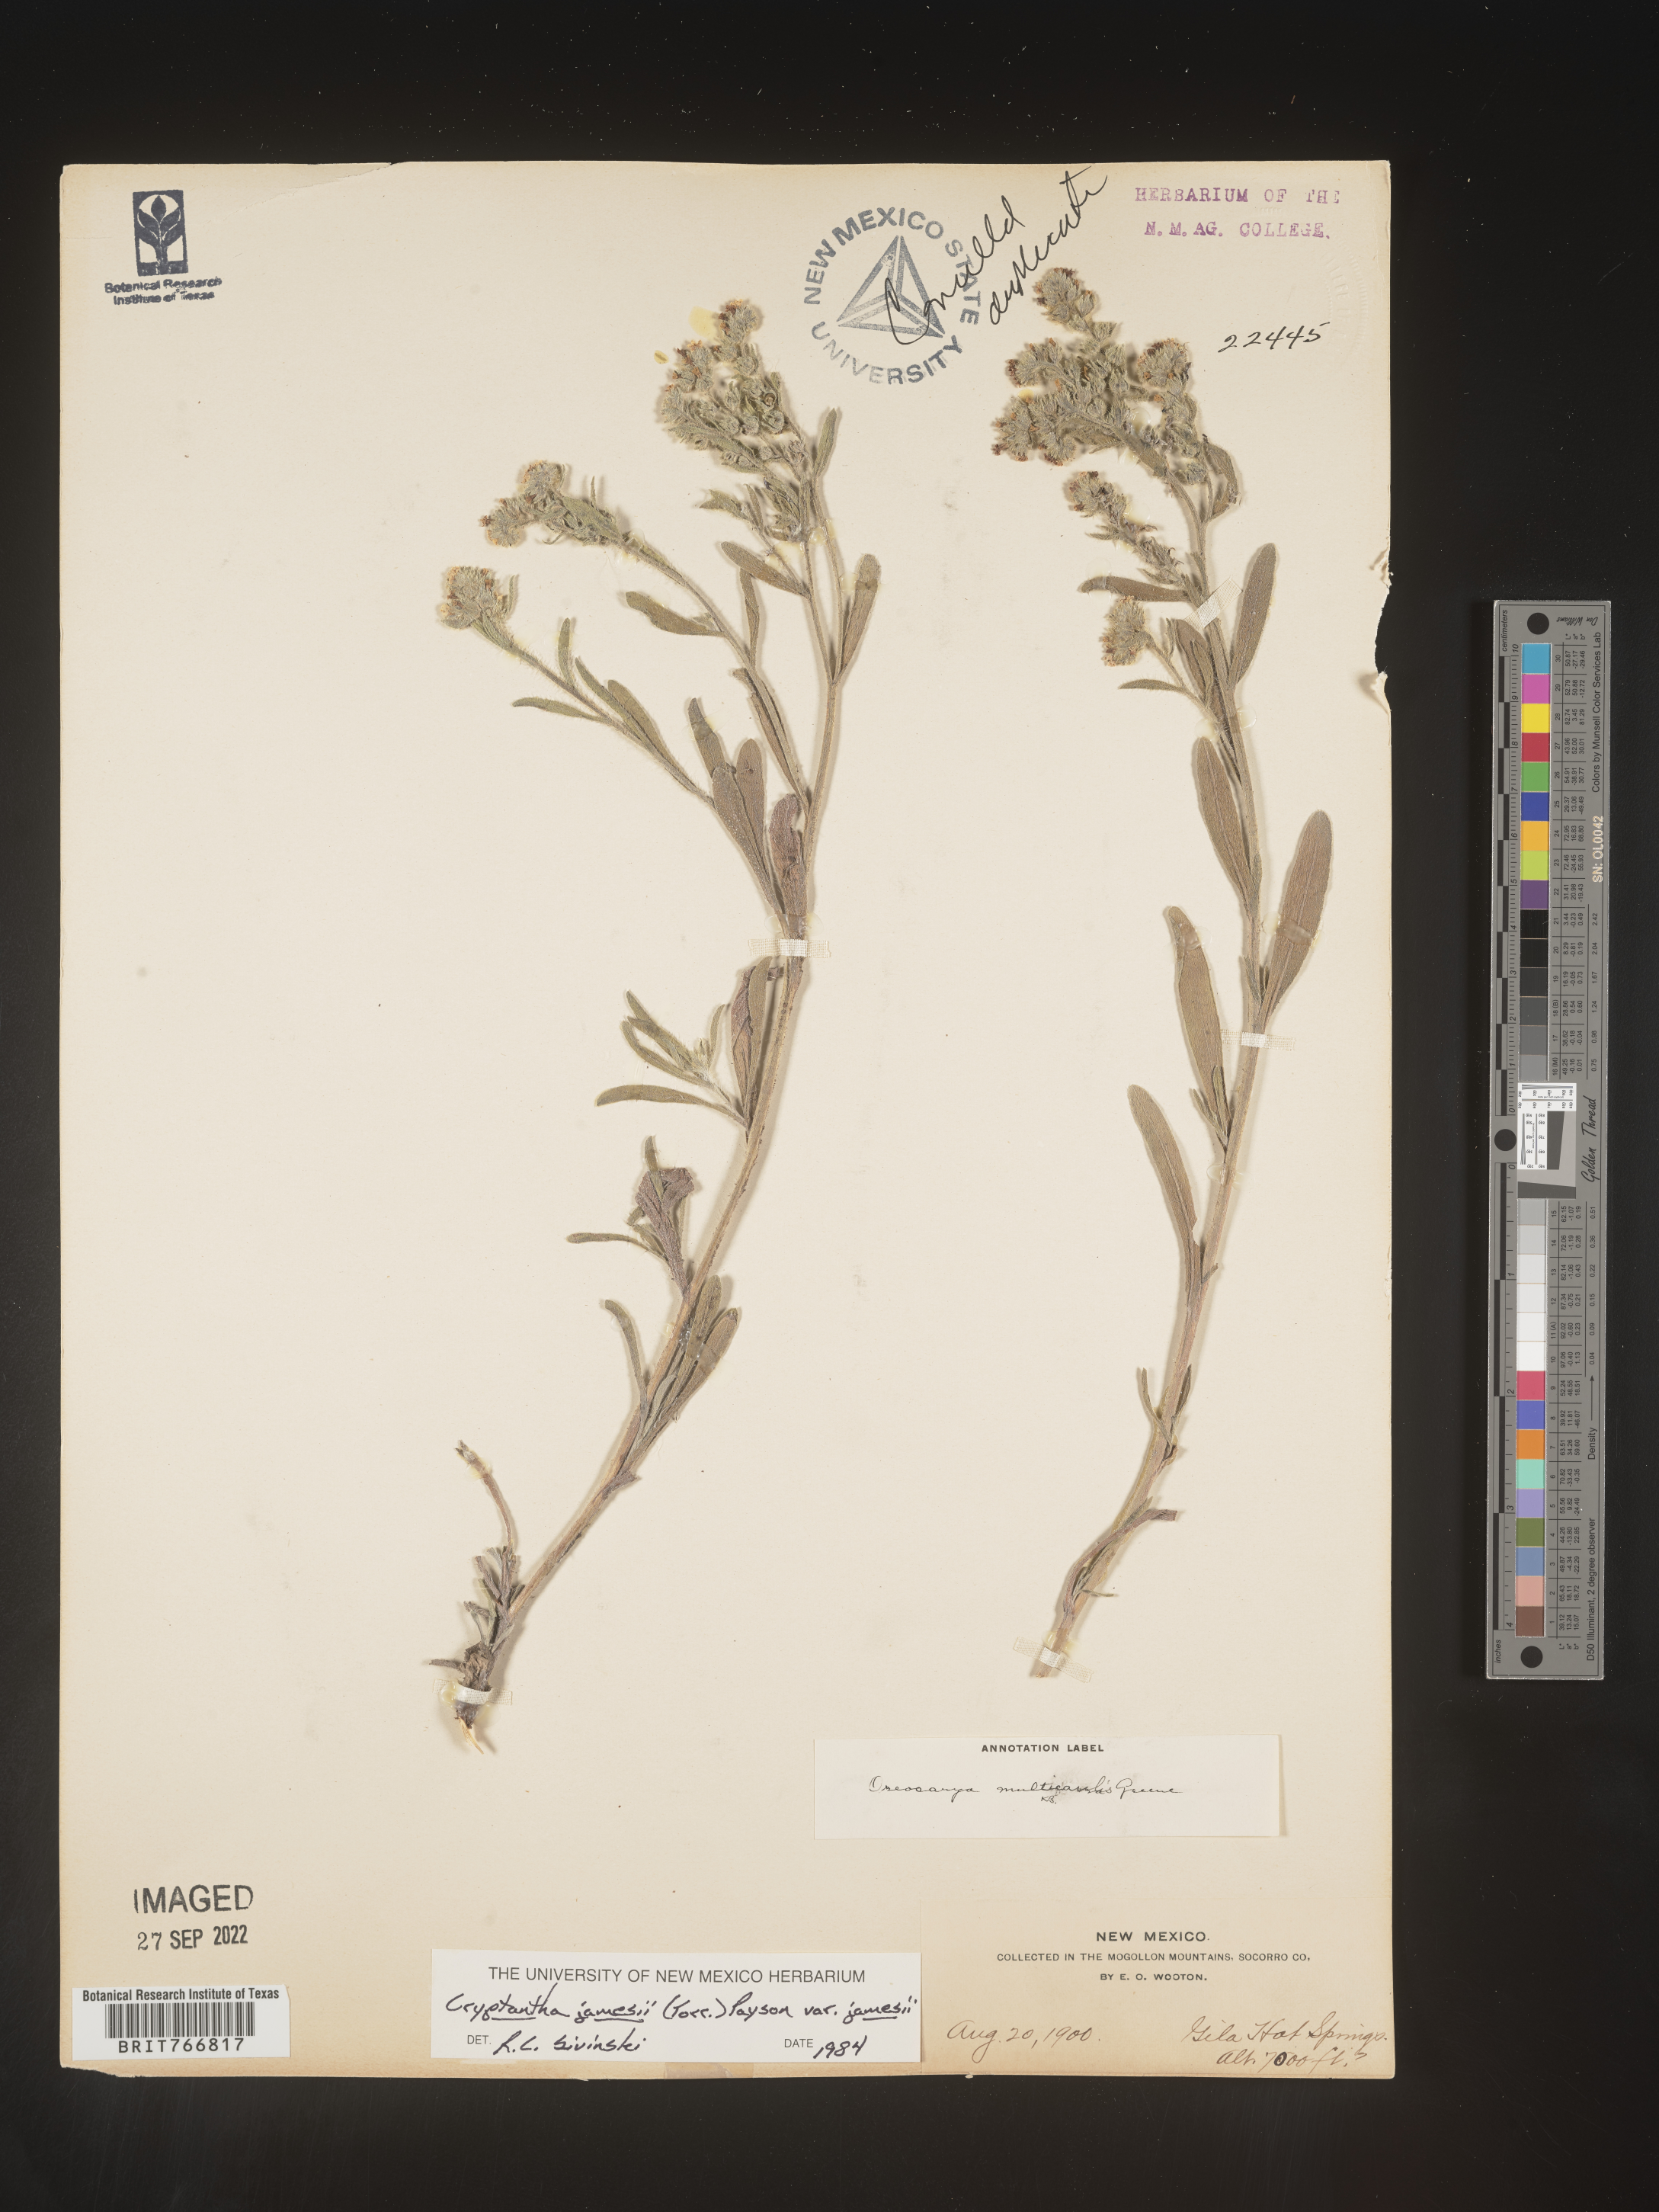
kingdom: Plantae
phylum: Tracheophyta
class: Magnoliopsida
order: Boraginales
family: Boraginaceae
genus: Oreocarya
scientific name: Oreocarya suffruticosa
